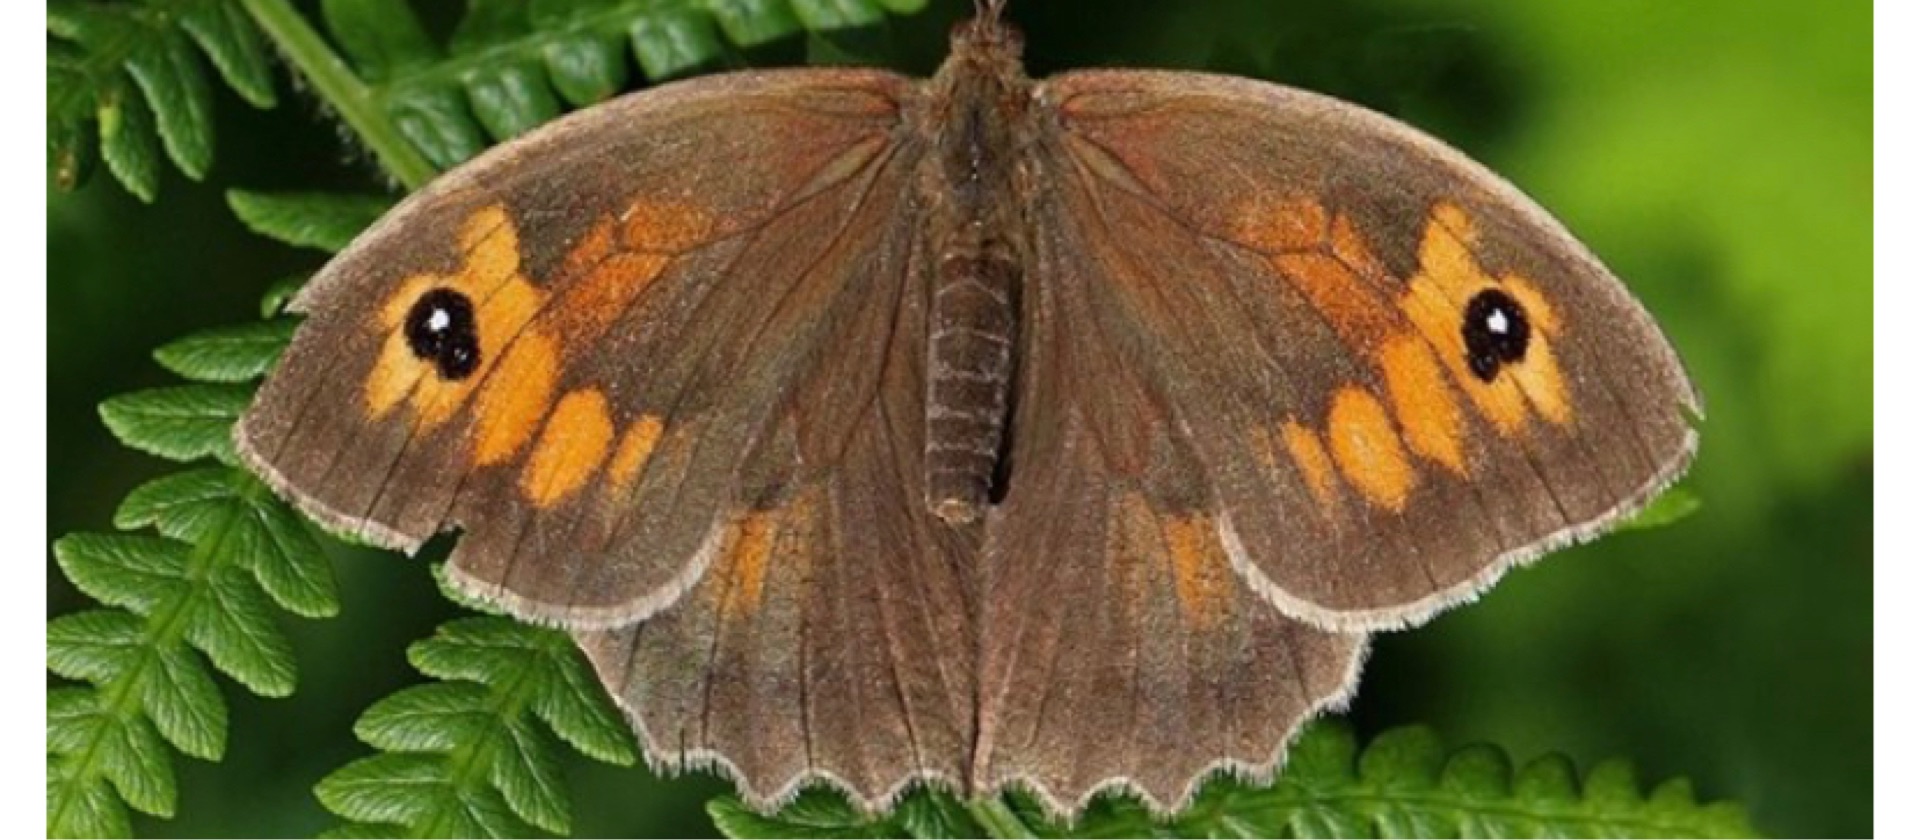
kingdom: Animalia
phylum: Arthropoda
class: Insecta
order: Lepidoptera
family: Nymphalidae
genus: Maniola
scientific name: Maniola jurtina
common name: Græsrandøje
